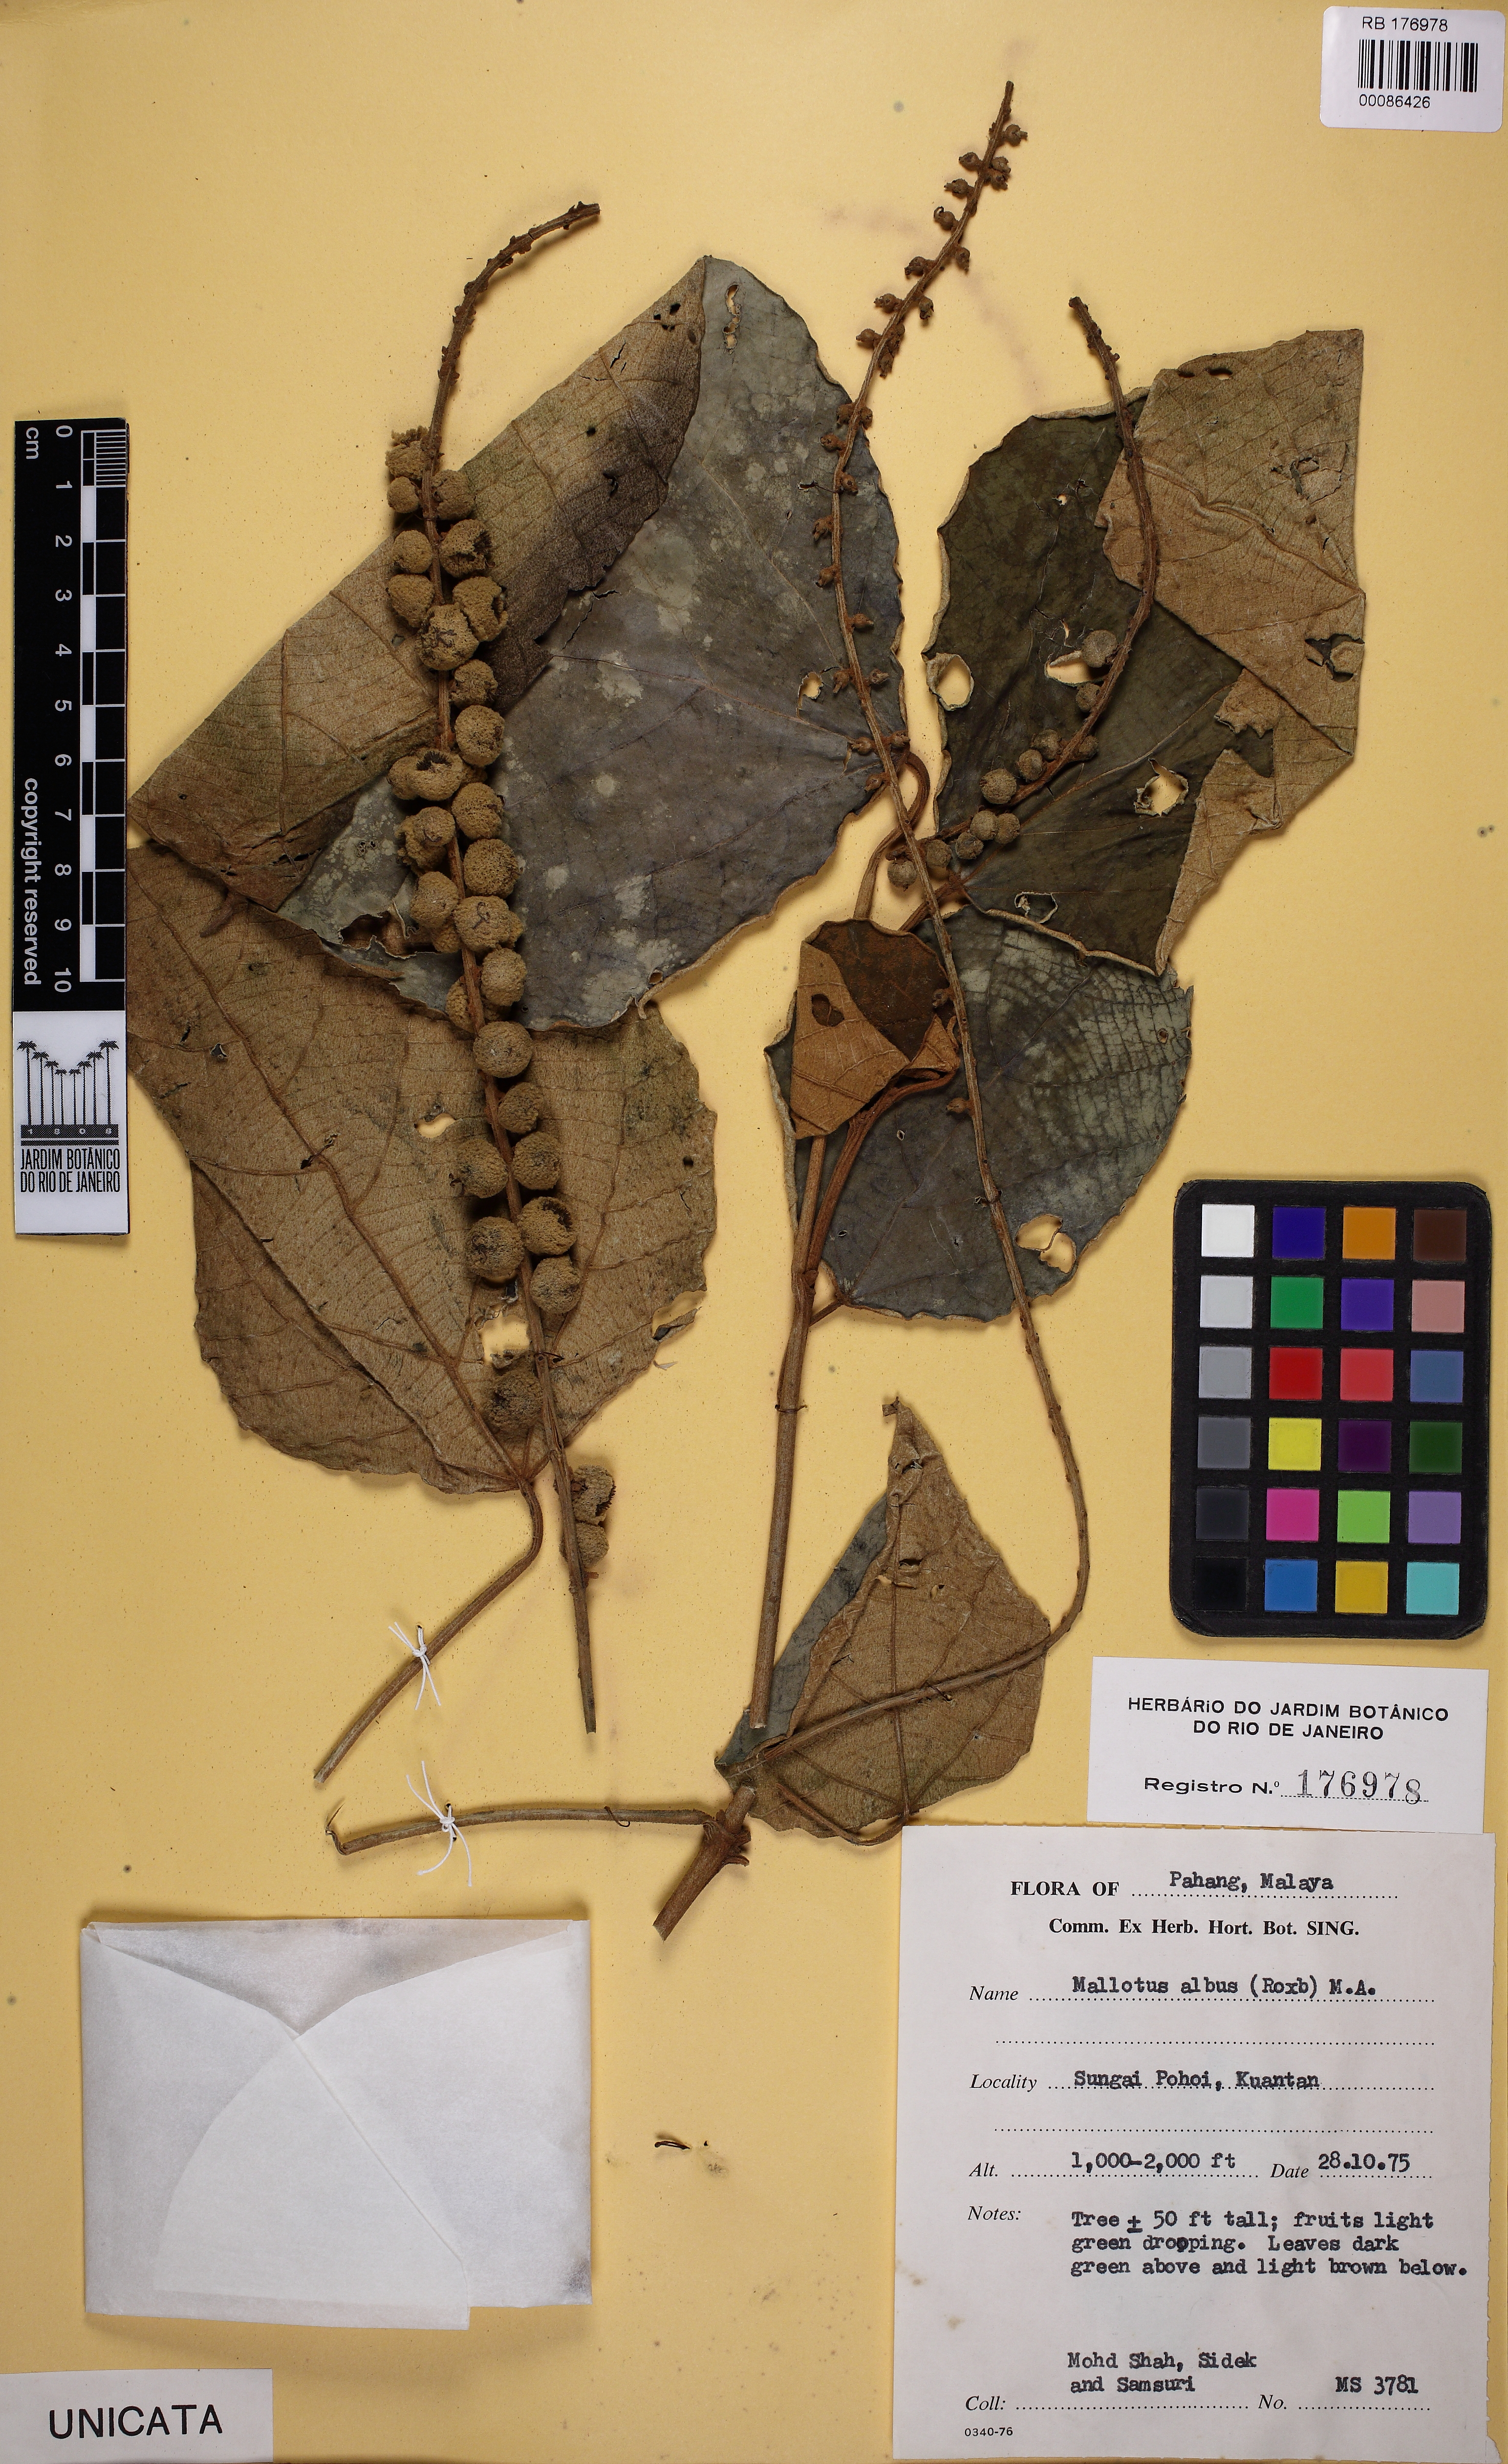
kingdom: Plantae
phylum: Tracheophyta
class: Magnoliopsida
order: Malpighiales
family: Euphorbiaceae
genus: Mallotus
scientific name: Mallotus paniculatus
